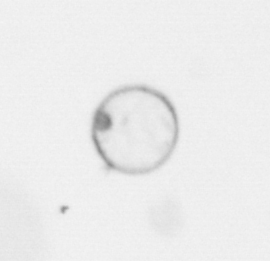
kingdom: Chromista
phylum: Myzozoa
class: Dinophyceae
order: Noctilucales
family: Noctilucaceae
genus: Noctiluca
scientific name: Noctiluca scintillans
